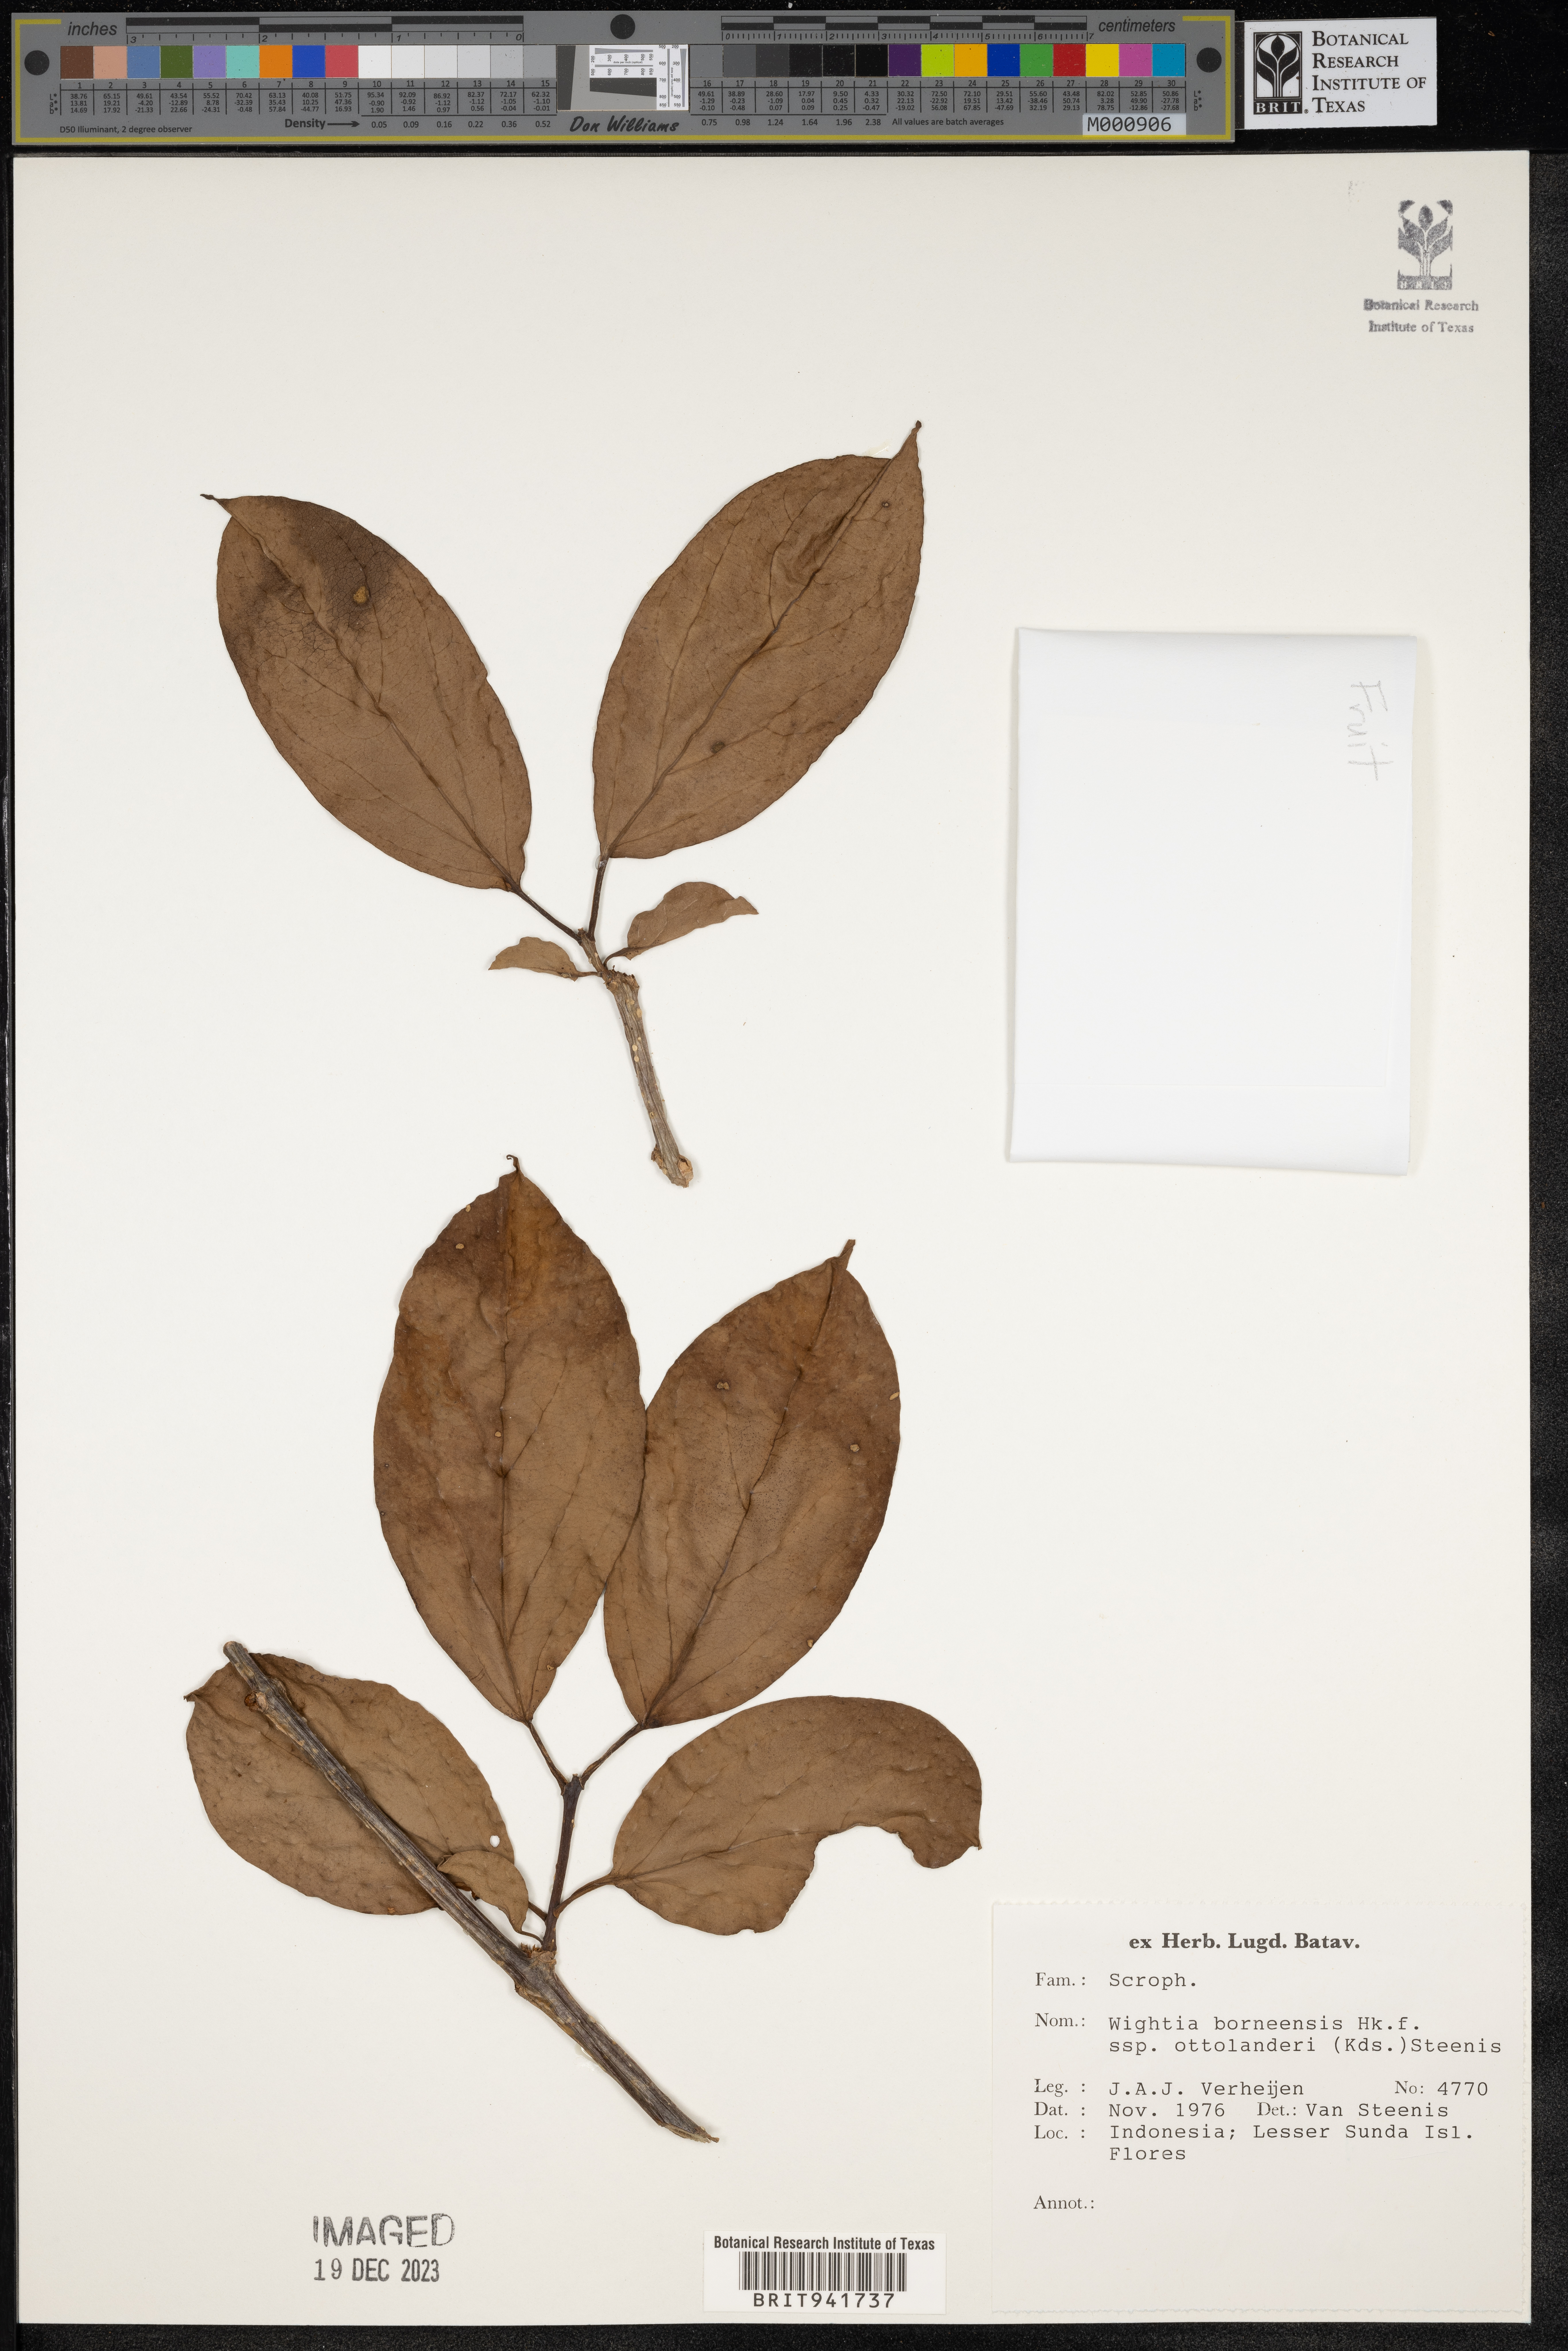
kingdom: Plantae
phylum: Tracheophyta
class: Magnoliopsida
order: Lamiales
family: Wightiaceae
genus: Wightia
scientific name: Wightia
